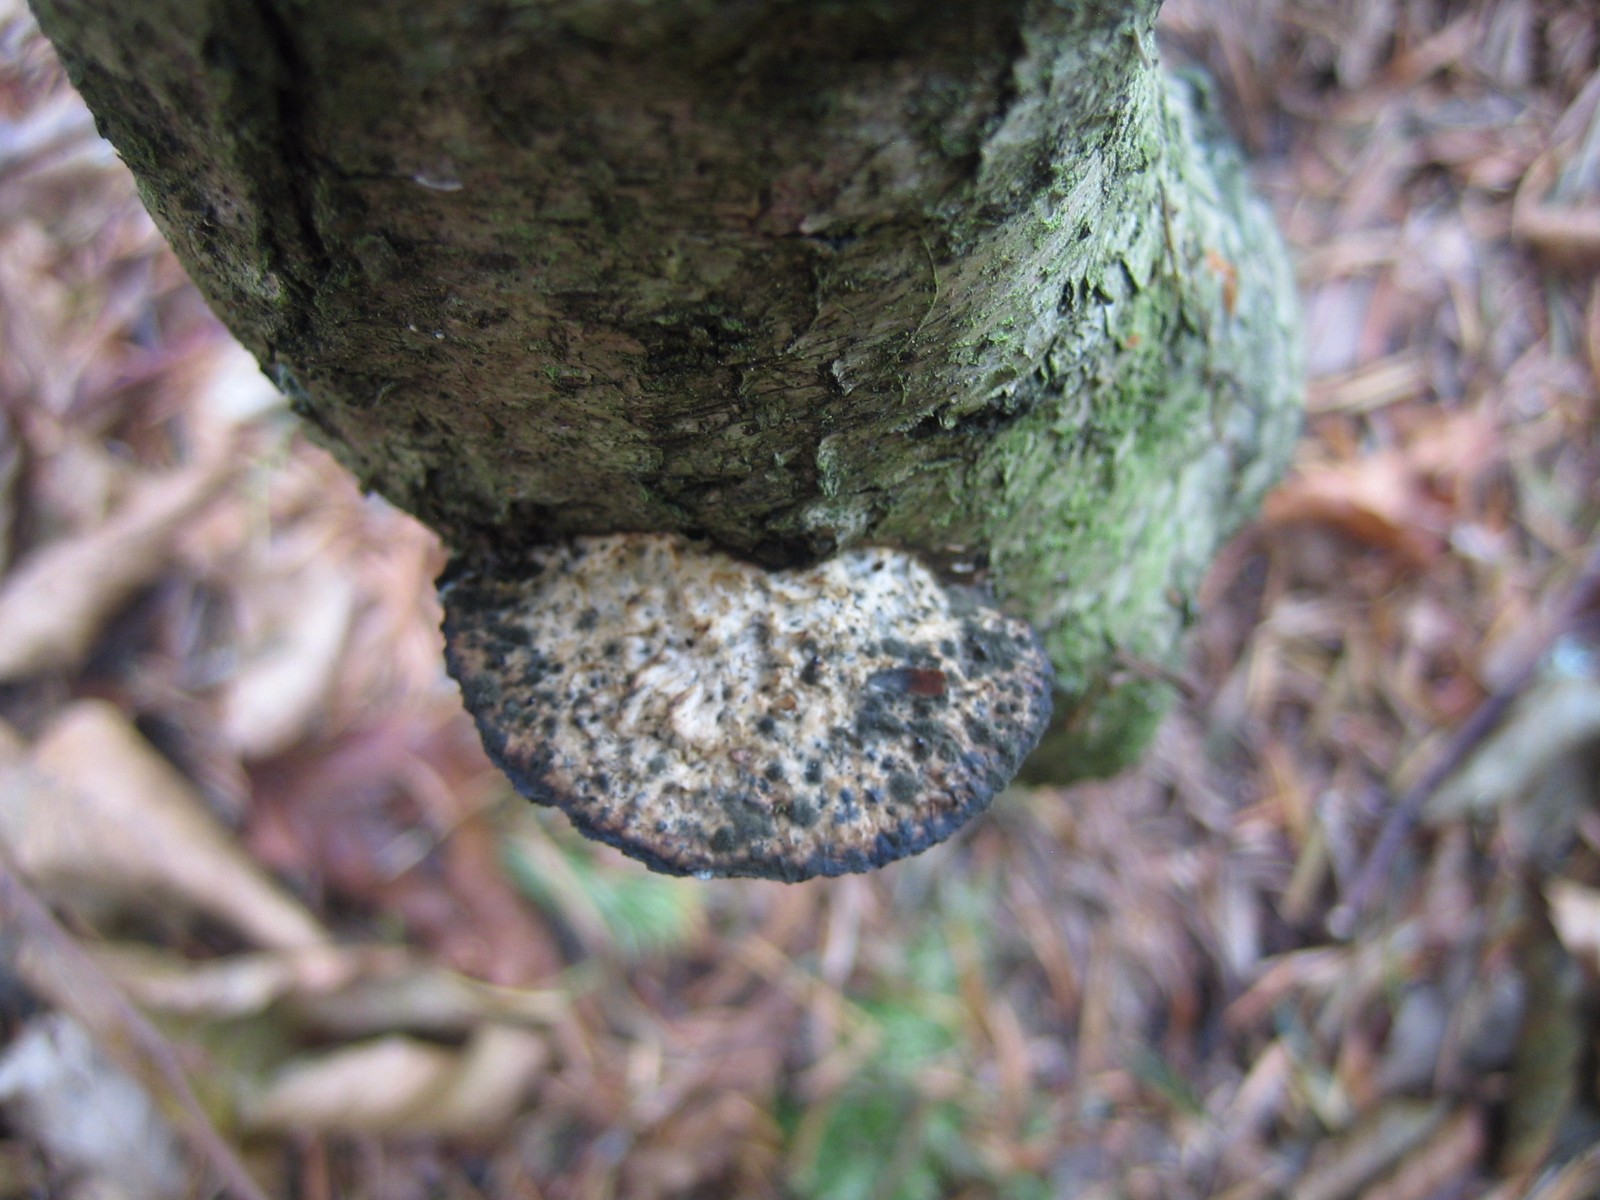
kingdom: Fungi
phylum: Basidiomycota
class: Agaricomycetes
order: Polyporales
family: Polyporaceae
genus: Daedaleopsis
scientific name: Daedaleopsis confragosa
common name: rødmende læderporesvamp
